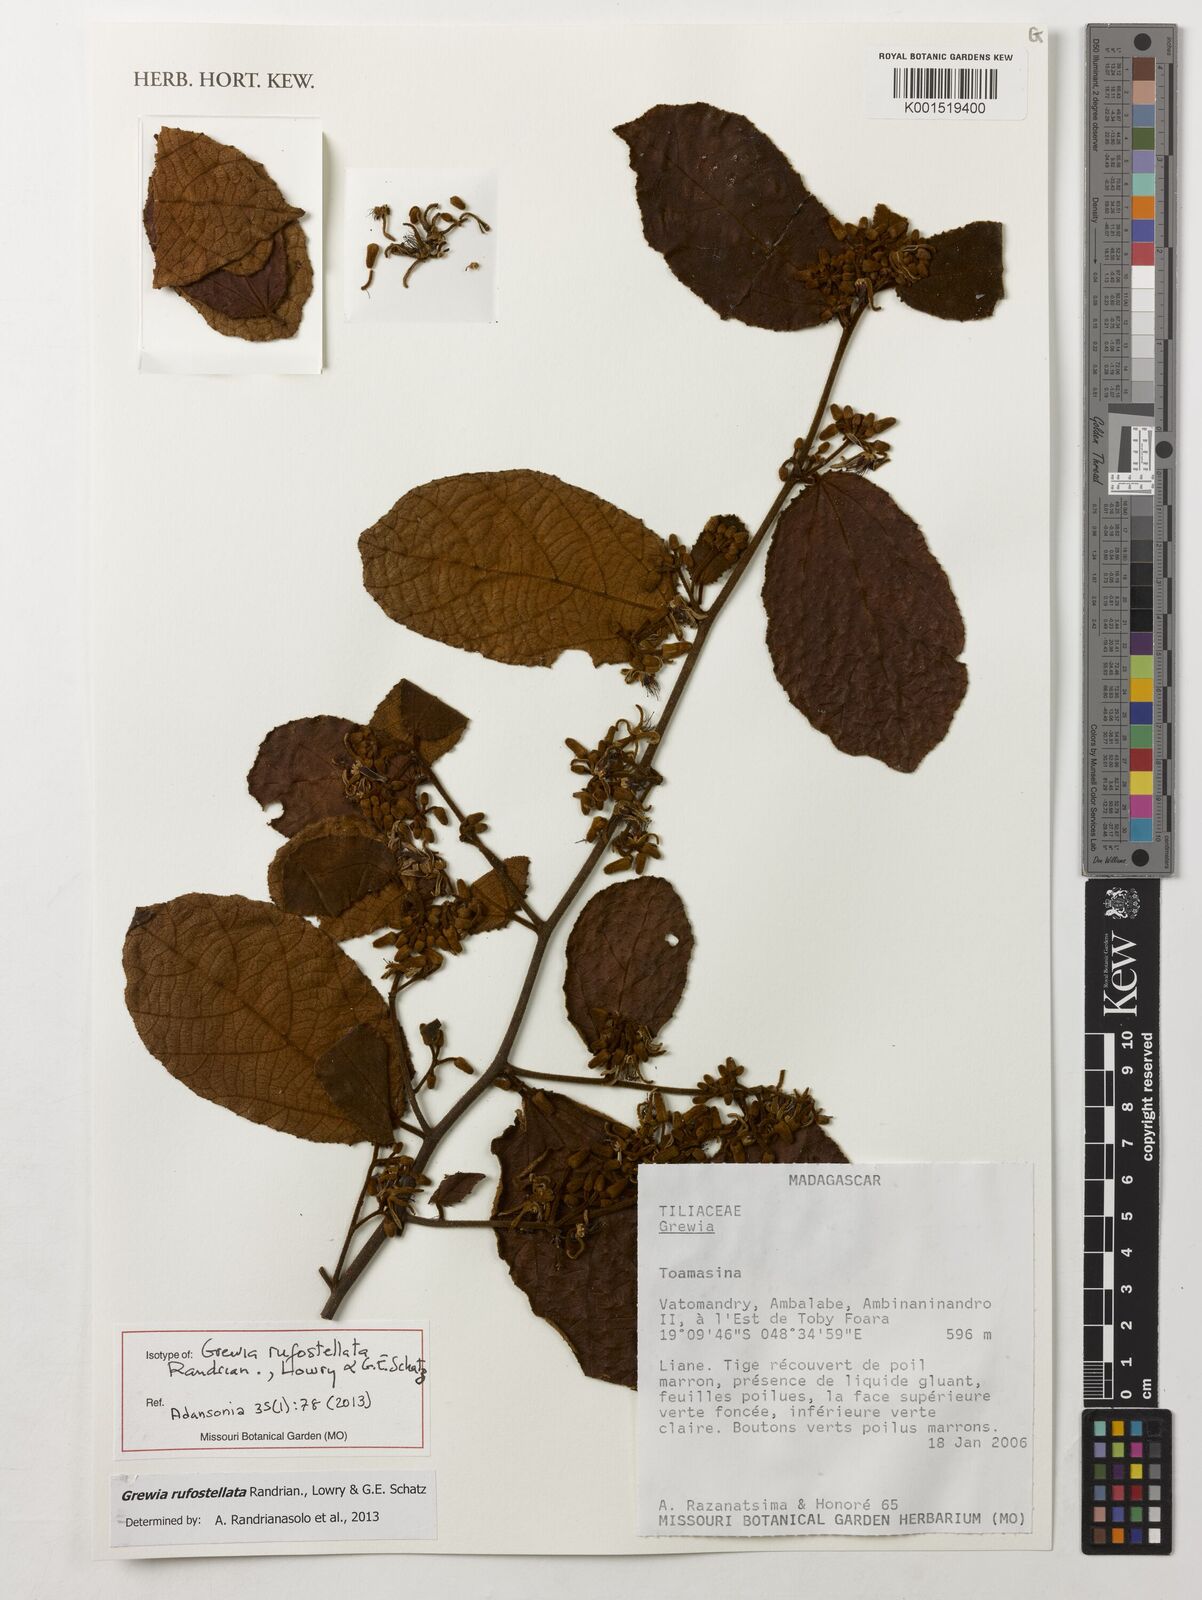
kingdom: Plantae
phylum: Tracheophyta
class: Magnoliopsida
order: Malvales
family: Malvaceae
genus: Grewia
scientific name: Grewia rufostellata
